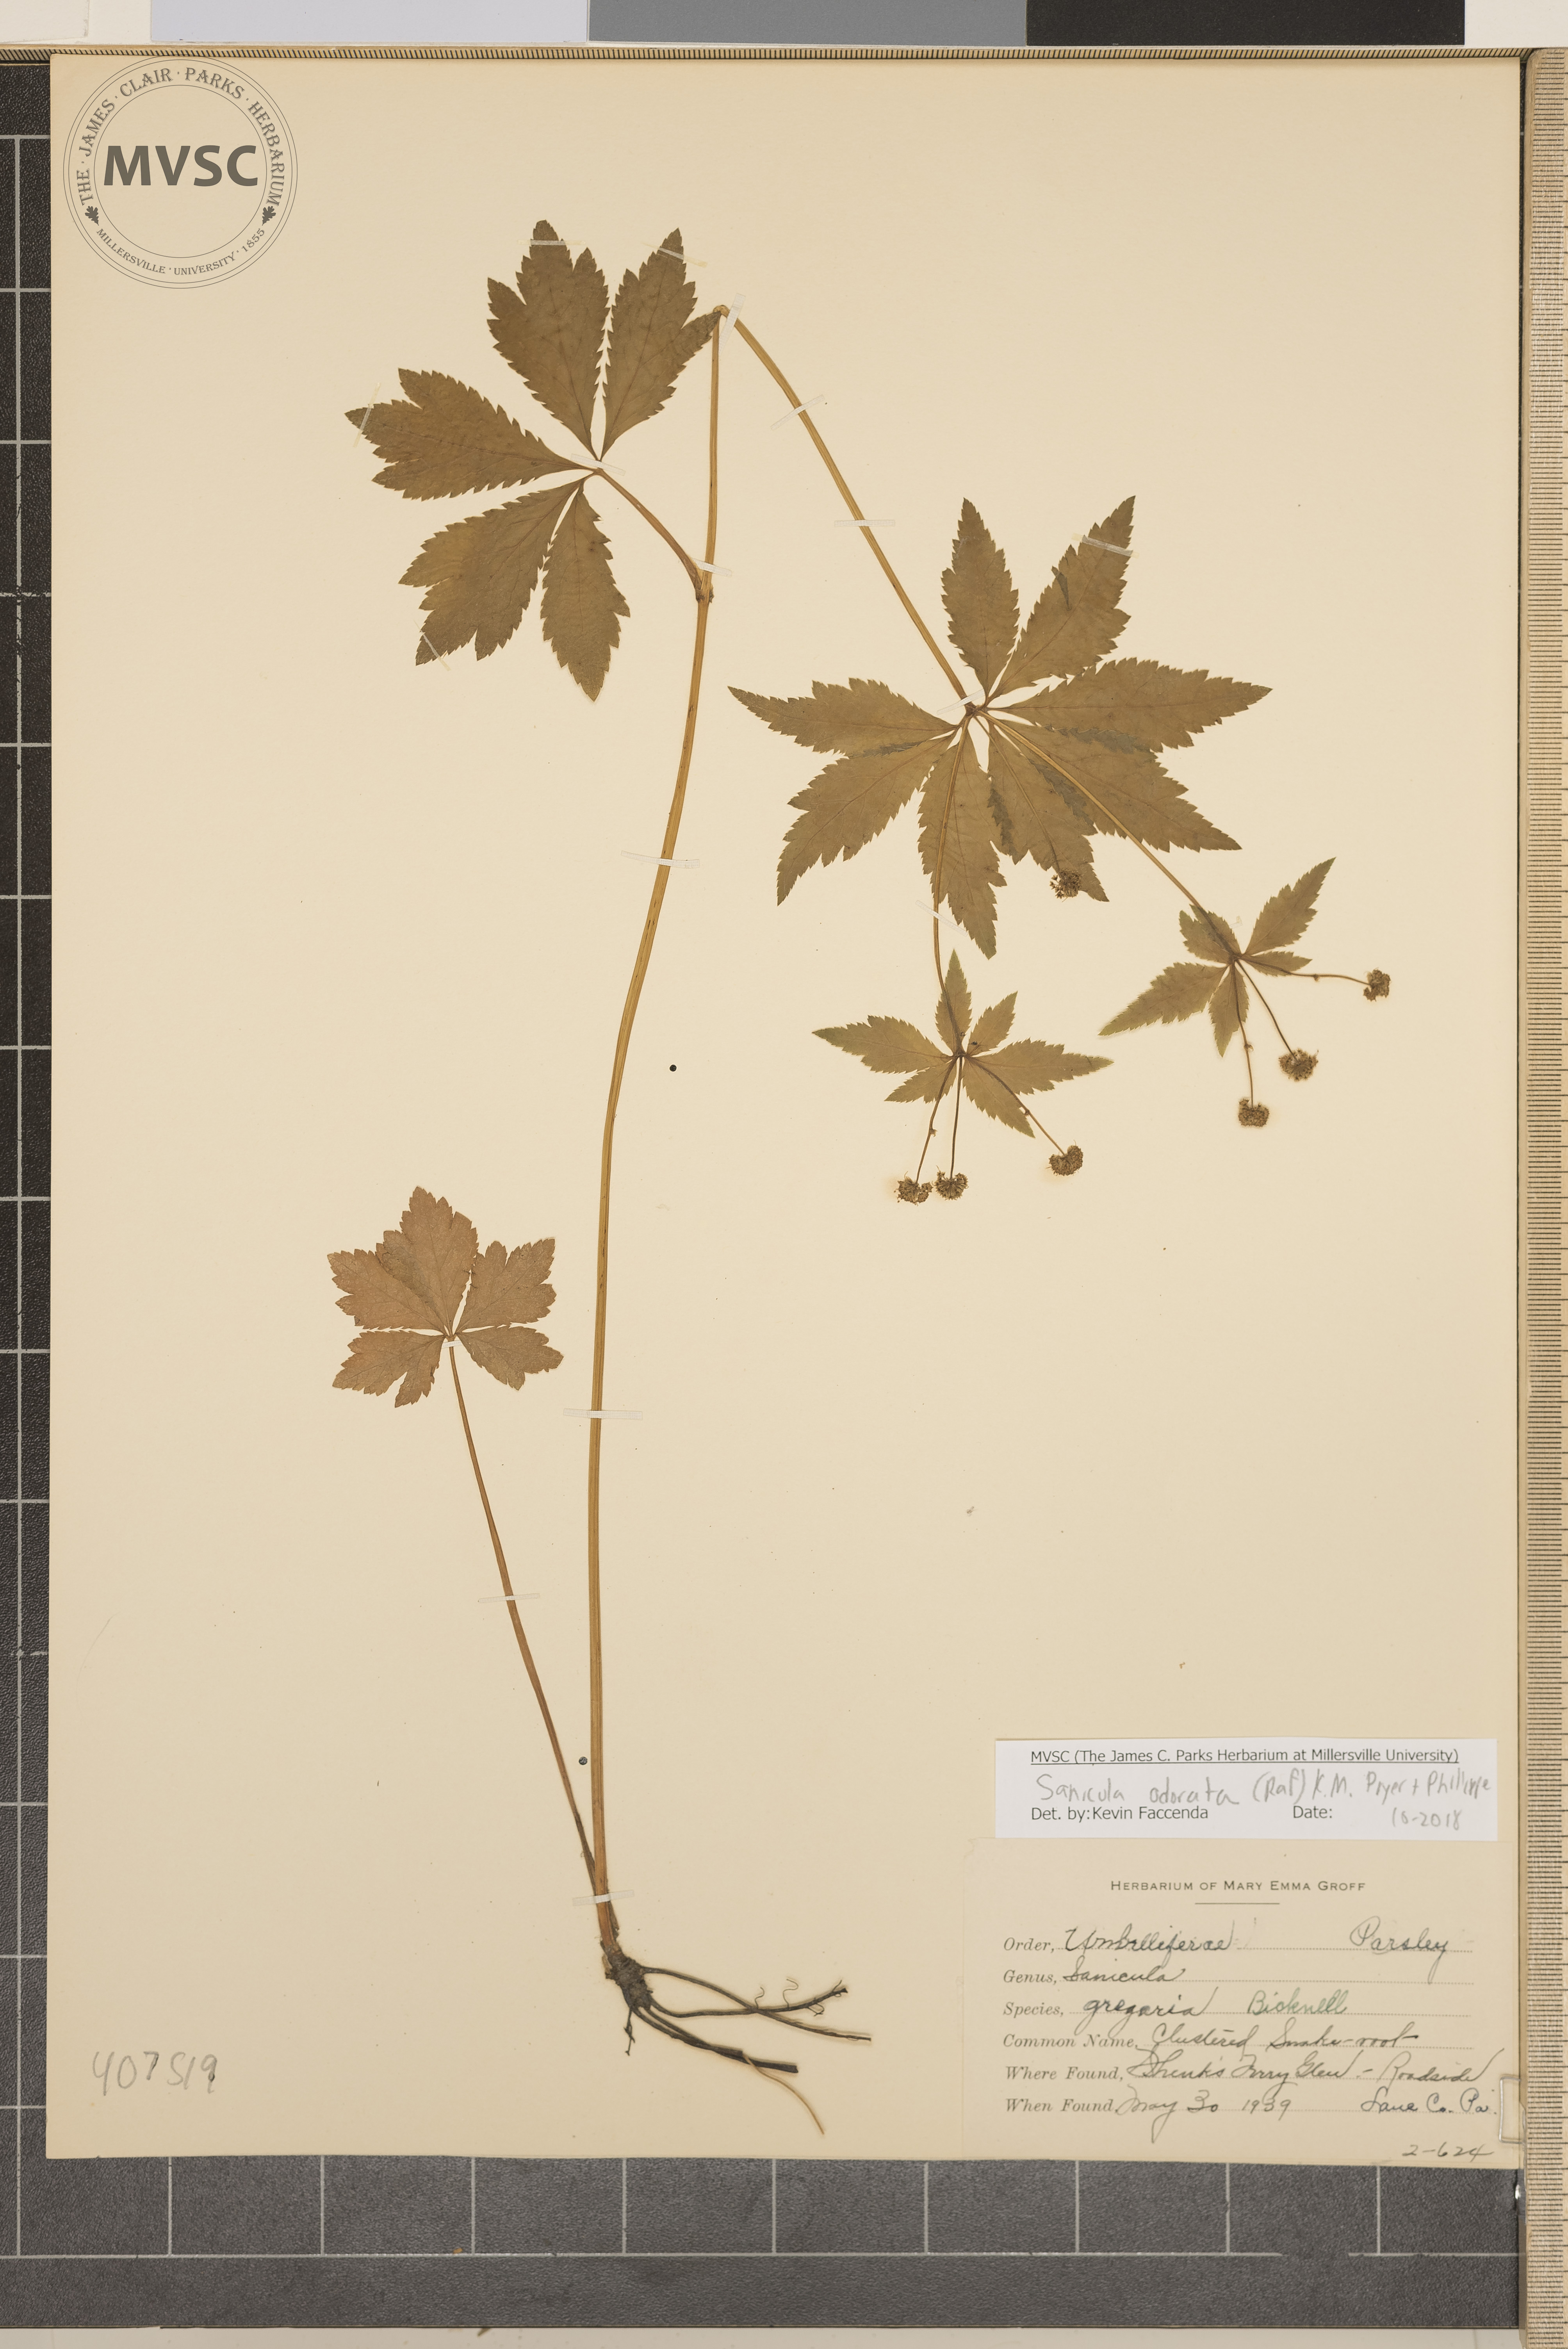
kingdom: Plantae
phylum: Tracheophyta
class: Magnoliopsida
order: Apiales
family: Apiaceae
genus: Sanicula
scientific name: Sanicula odorata
